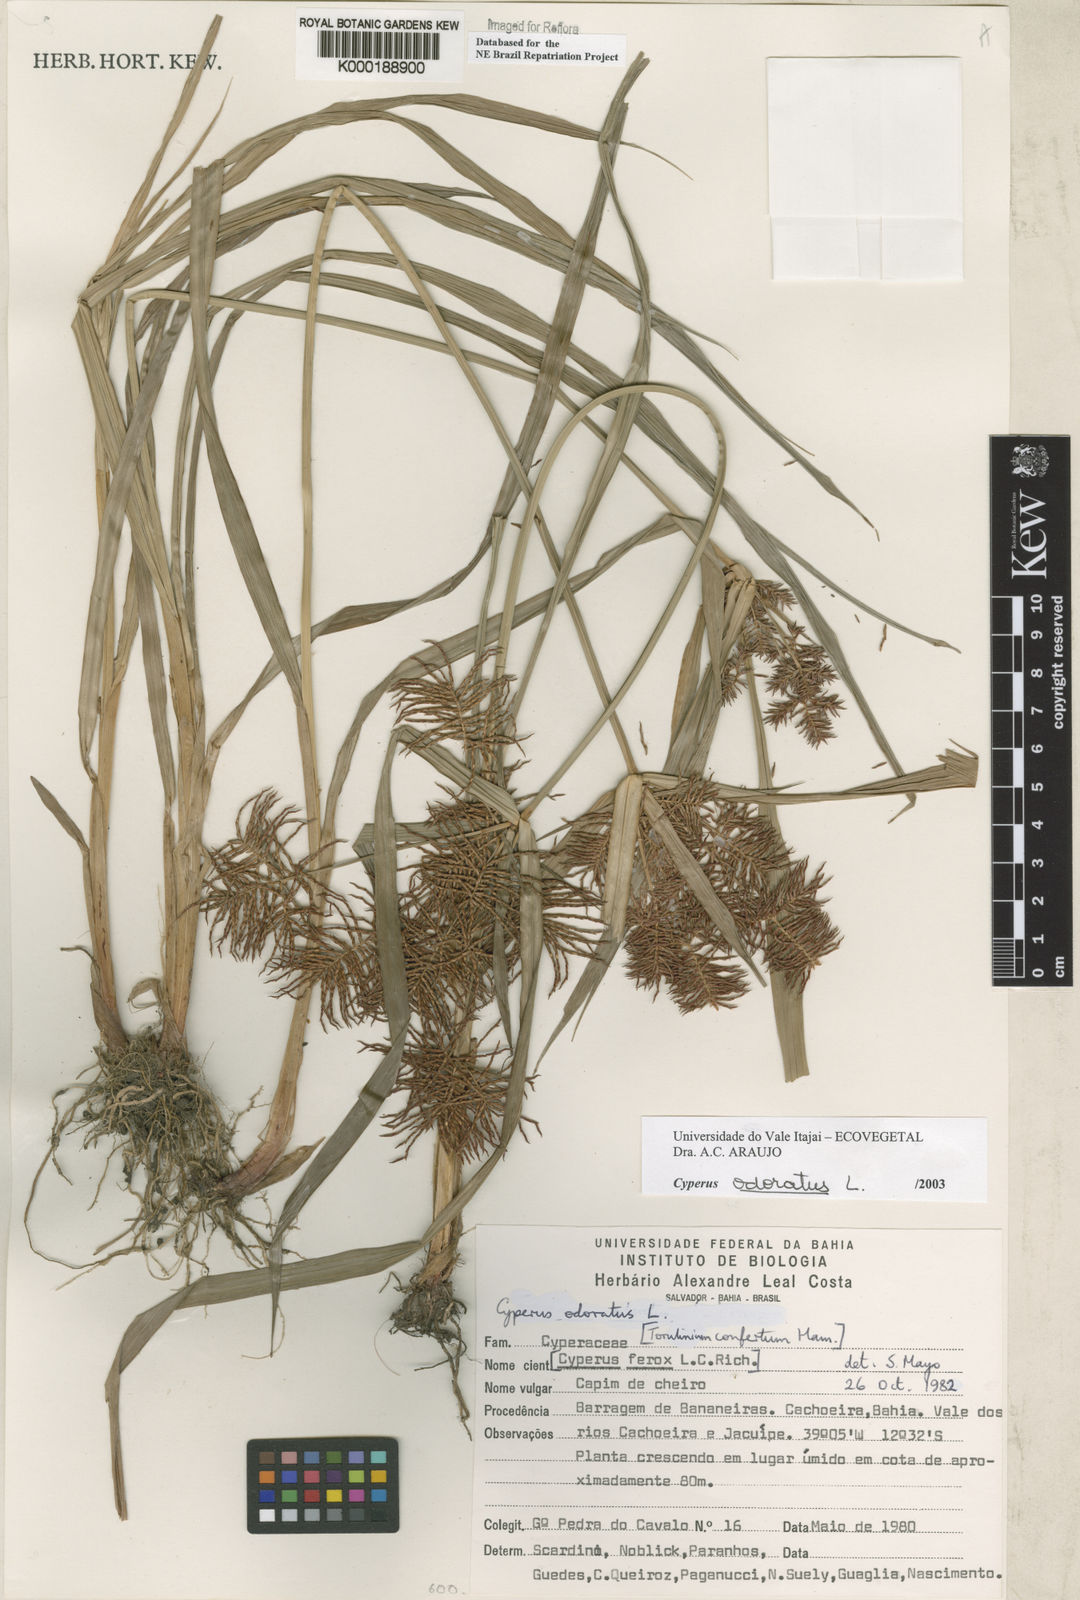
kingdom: Plantae
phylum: Tracheophyta
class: Liliopsida
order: Poales
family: Cyperaceae
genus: Cyperus
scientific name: Cyperus odoratus
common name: Fragrant flatsedge
